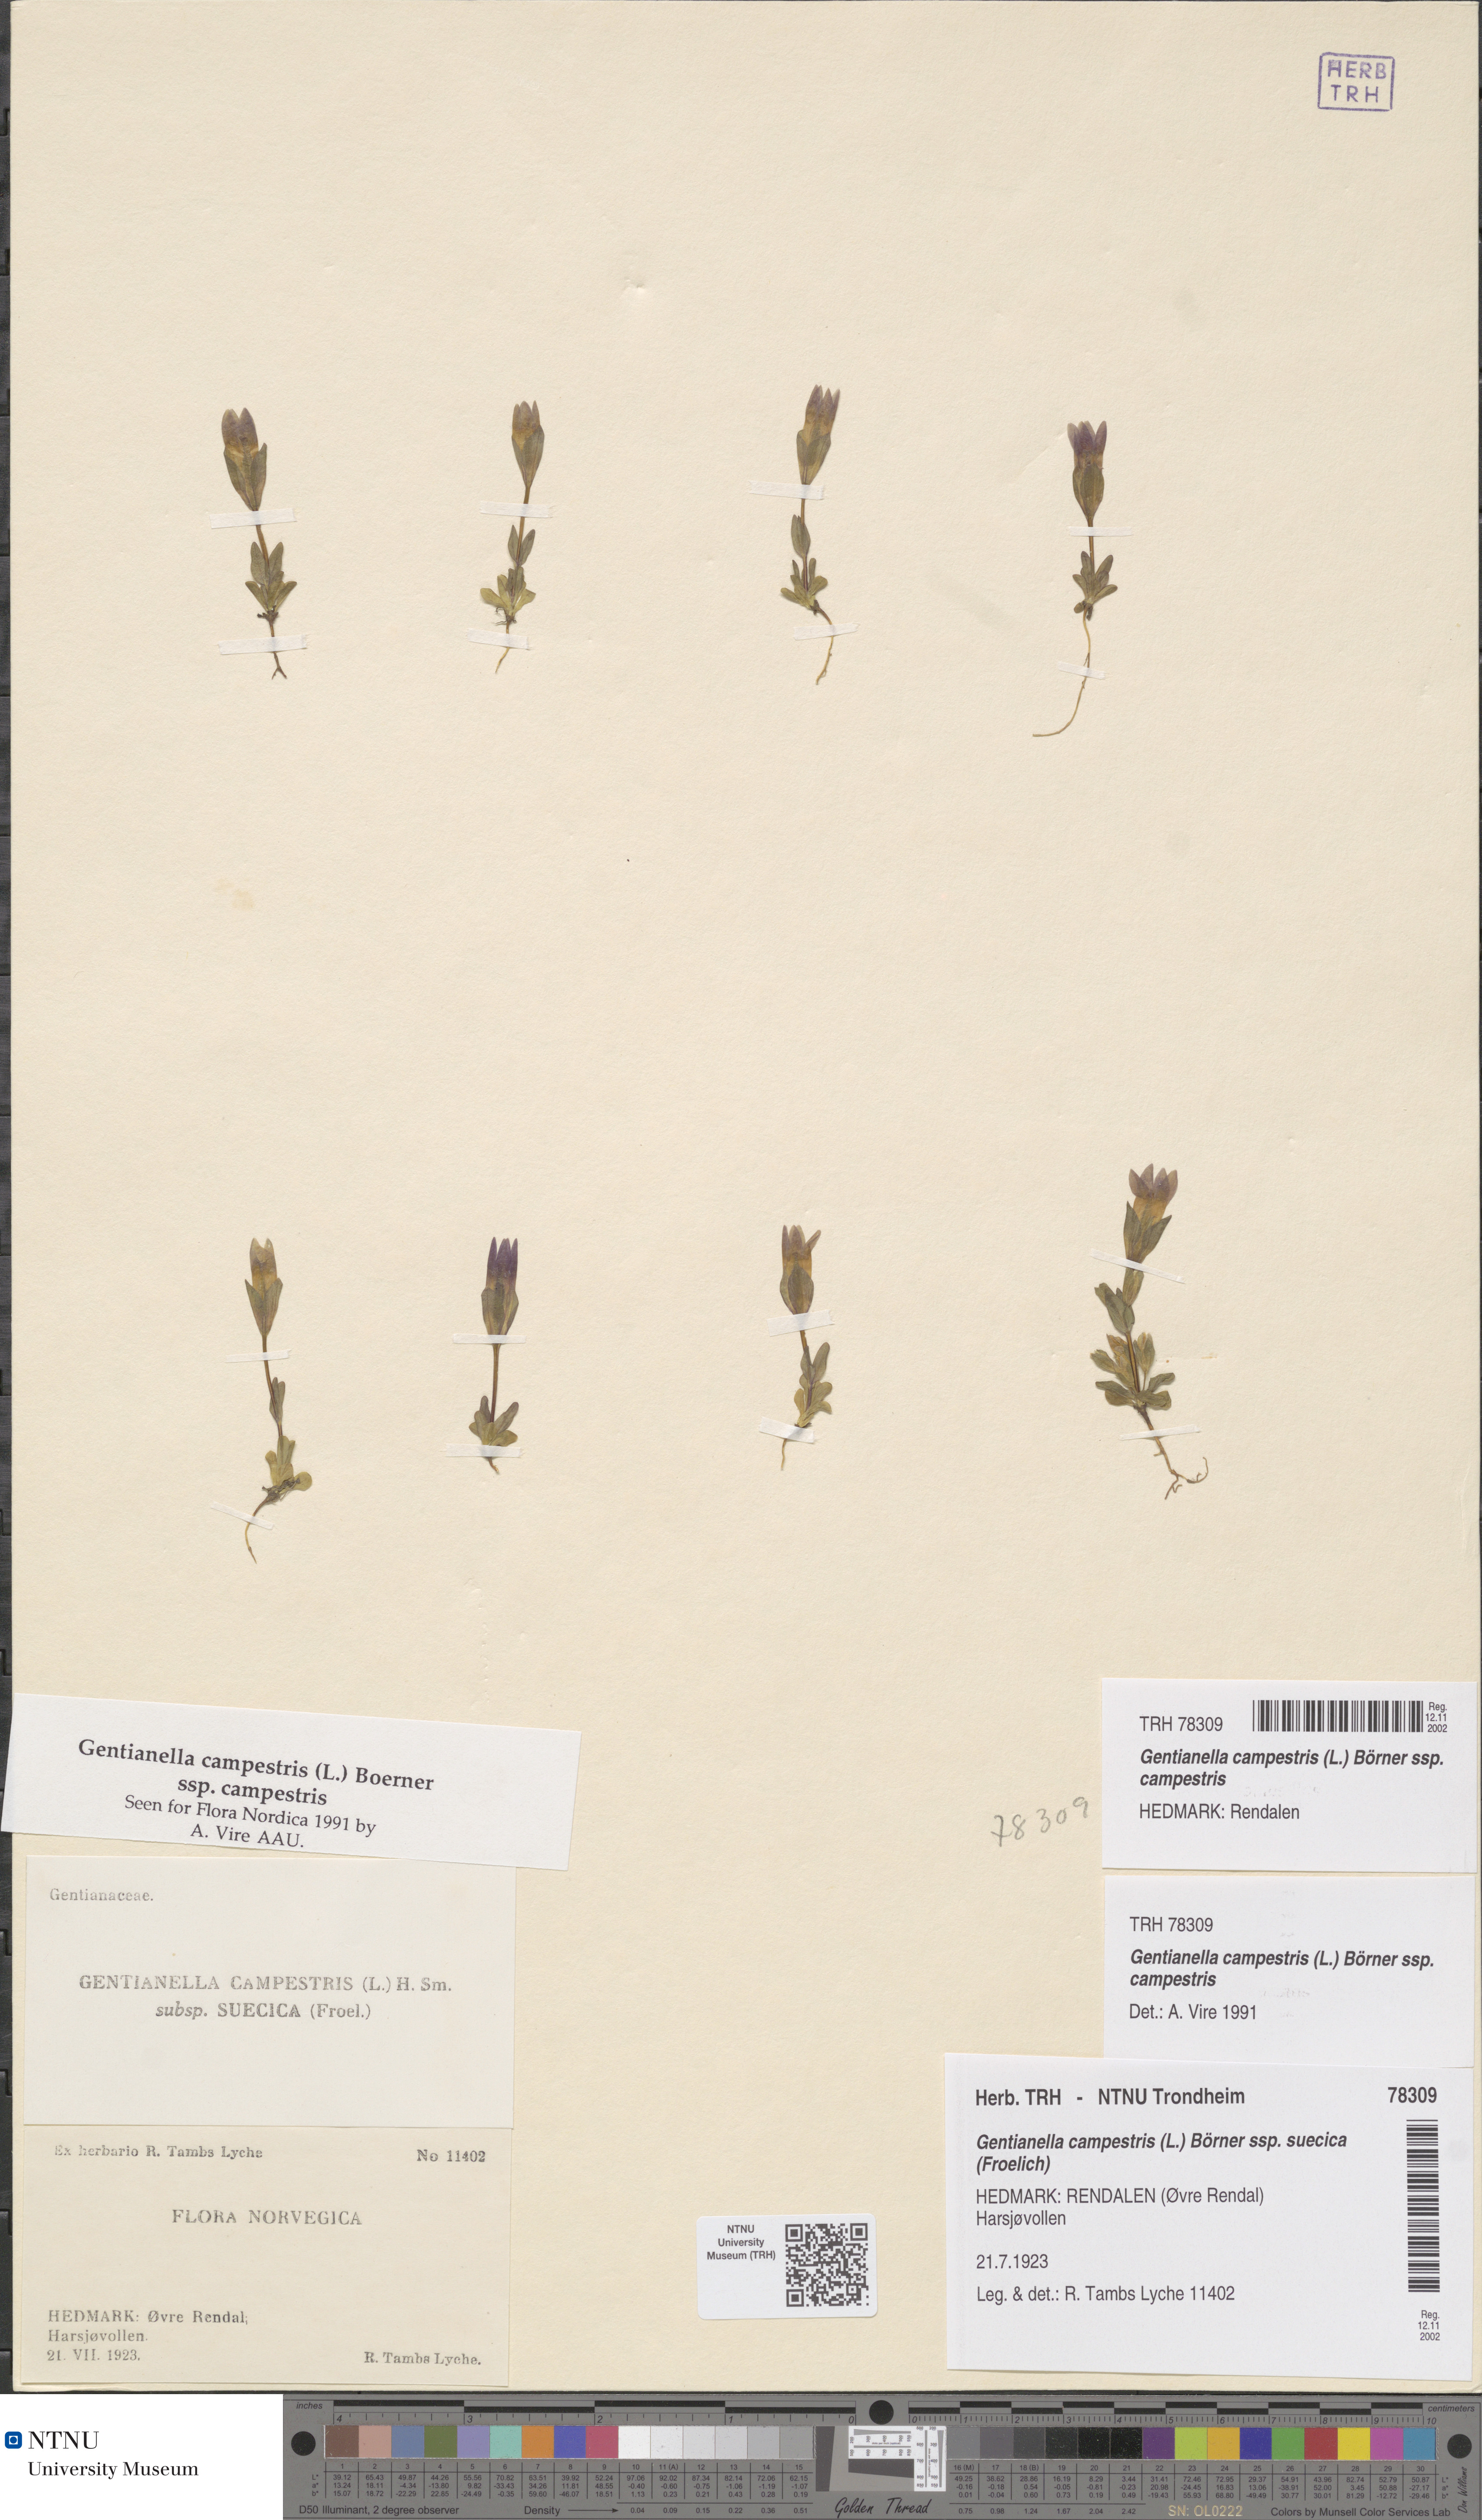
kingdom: Plantae
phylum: Tracheophyta
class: Magnoliopsida
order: Gentianales
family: Gentianaceae
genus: Gentianella
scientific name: Gentianella campestris
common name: Field gentian
